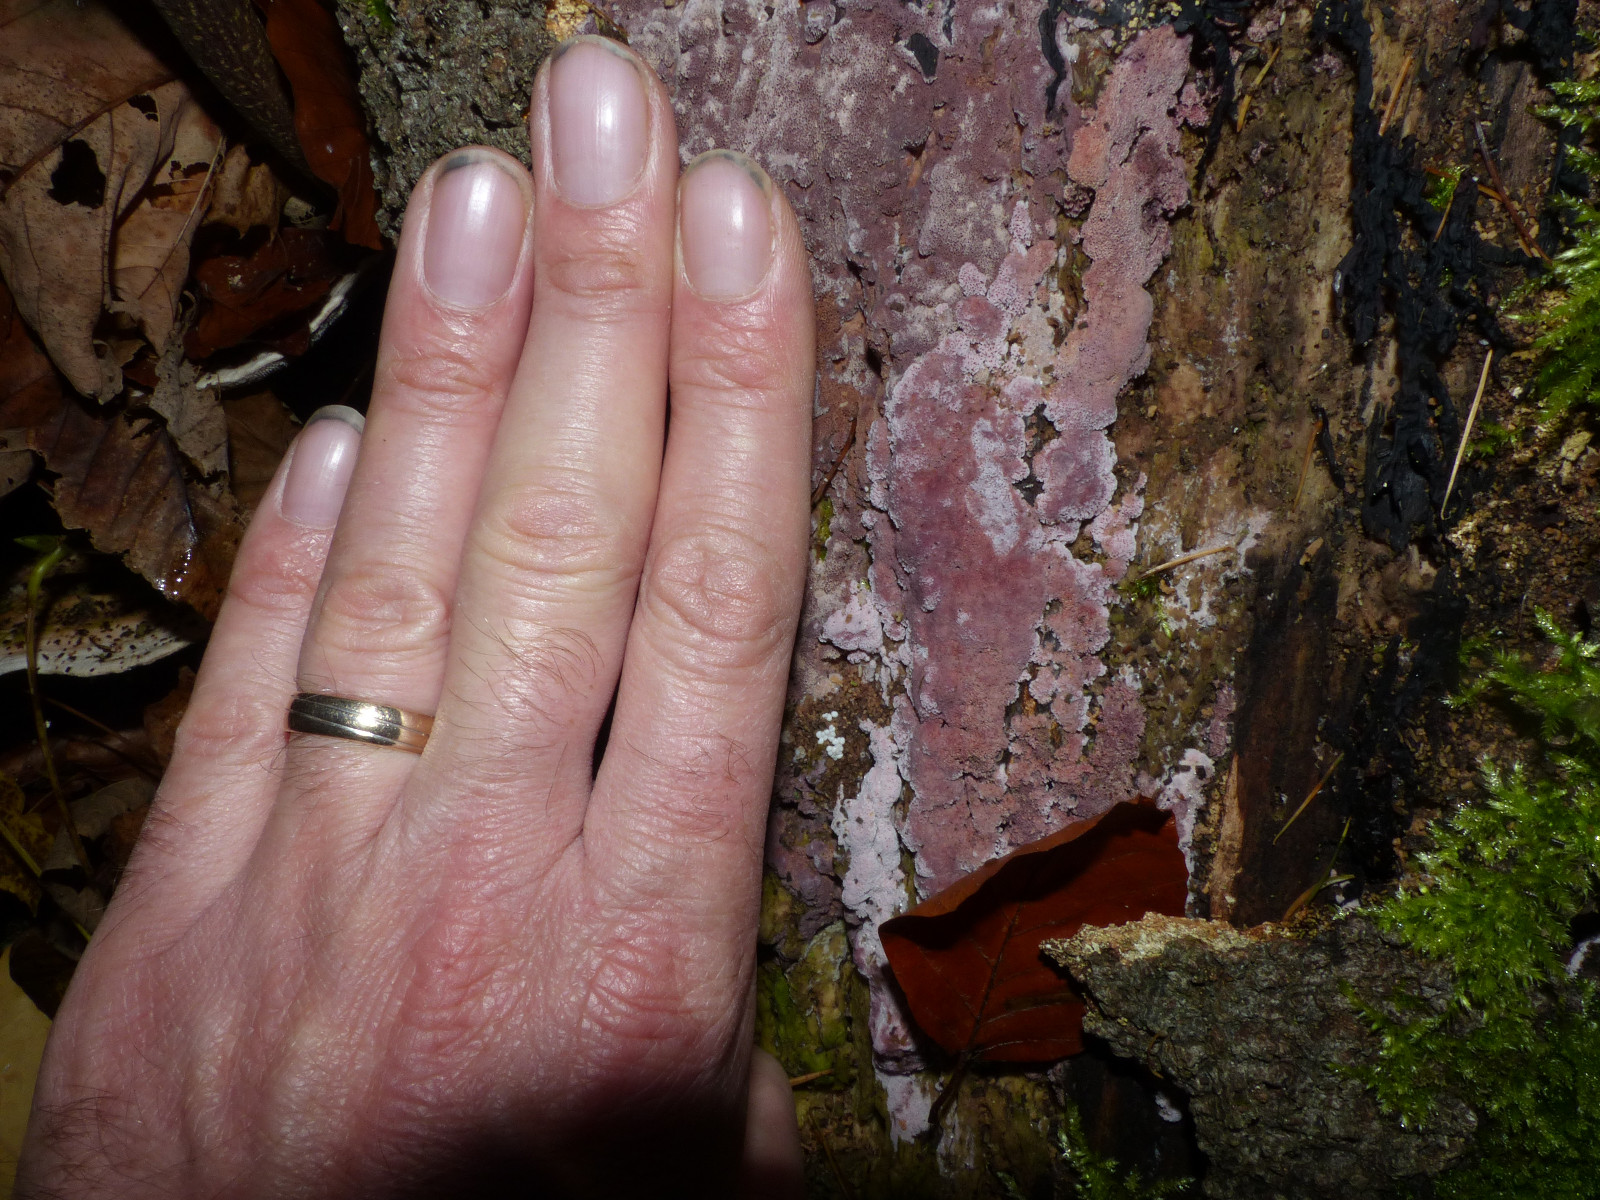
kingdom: Fungi
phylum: Basidiomycota
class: Agaricomycetes
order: Polyporales
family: Irpicaceae
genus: Ceriporia
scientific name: Ceriporia excelsa
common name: lilla voksporesvamp
